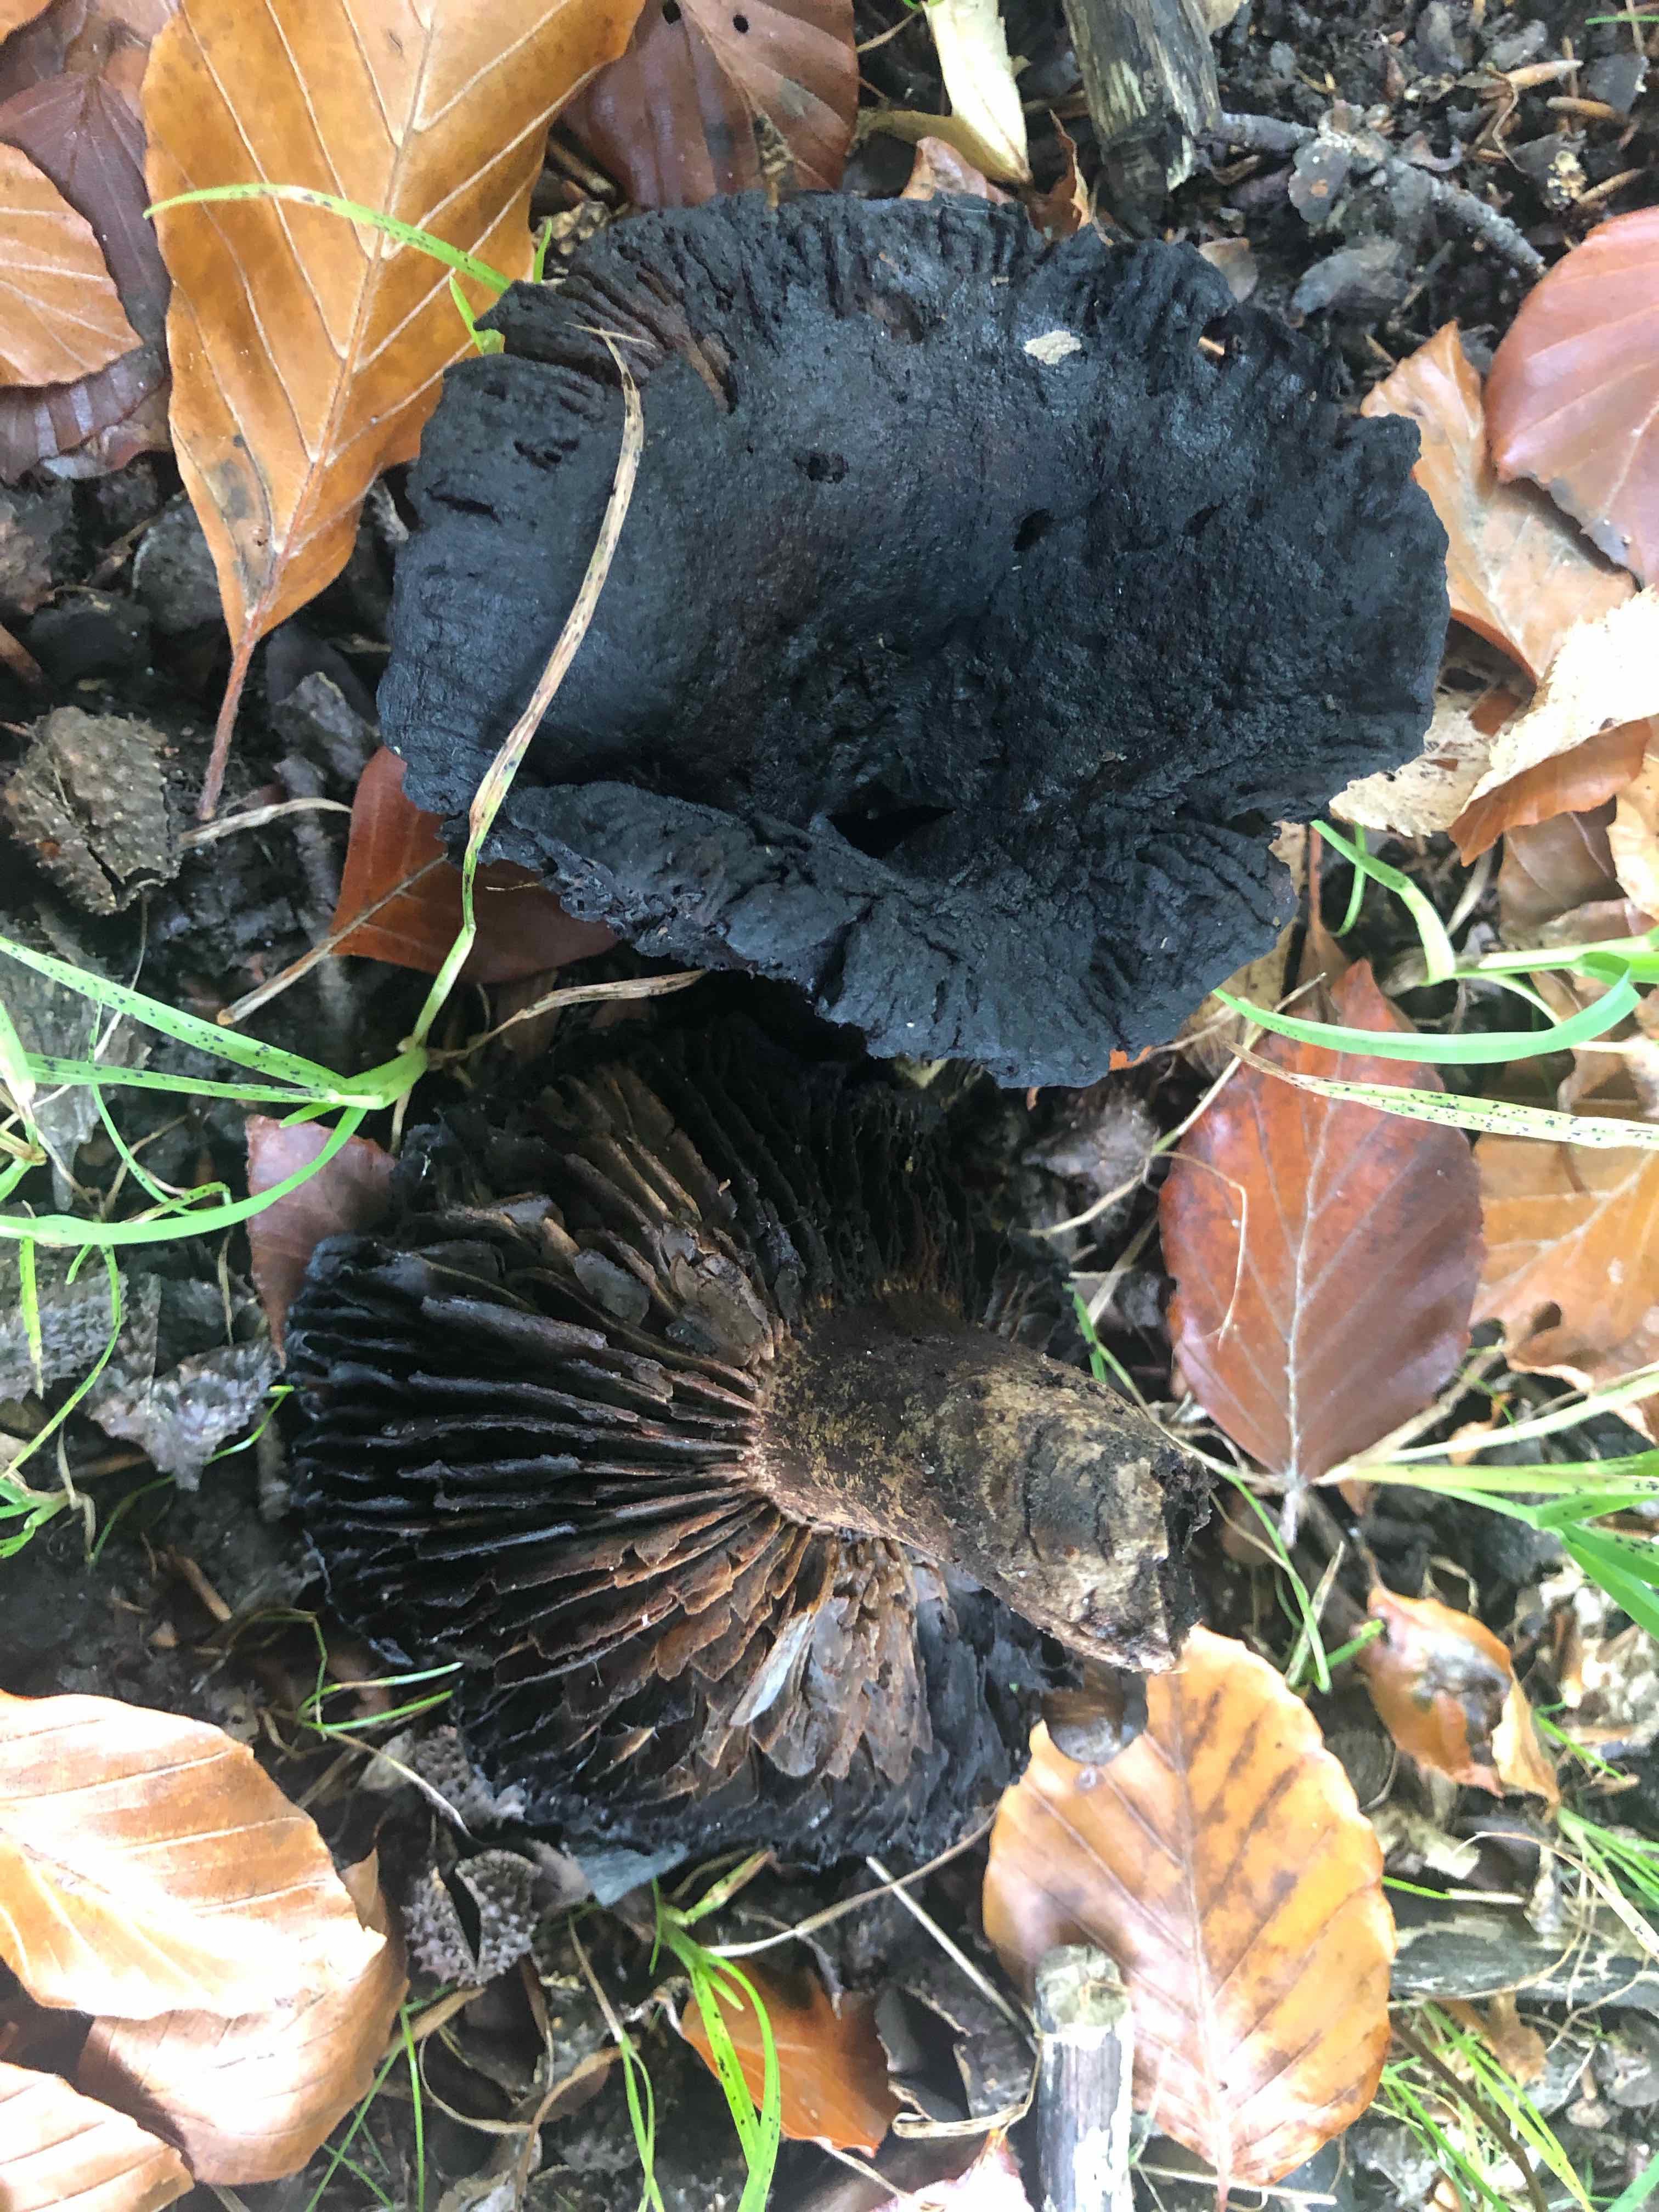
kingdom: Fungi
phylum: Basidiomycota
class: Agaricomycetes
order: Russulales
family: Russulaceae
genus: Russula
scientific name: Russula adusta
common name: sværtende skørhat
